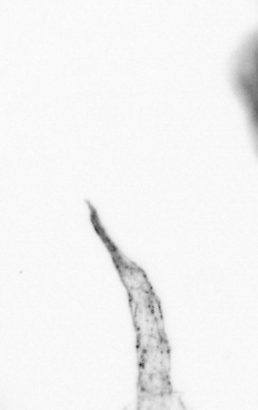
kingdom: Animalia
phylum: Arthropoda
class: Copepoda
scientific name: Copepoda
